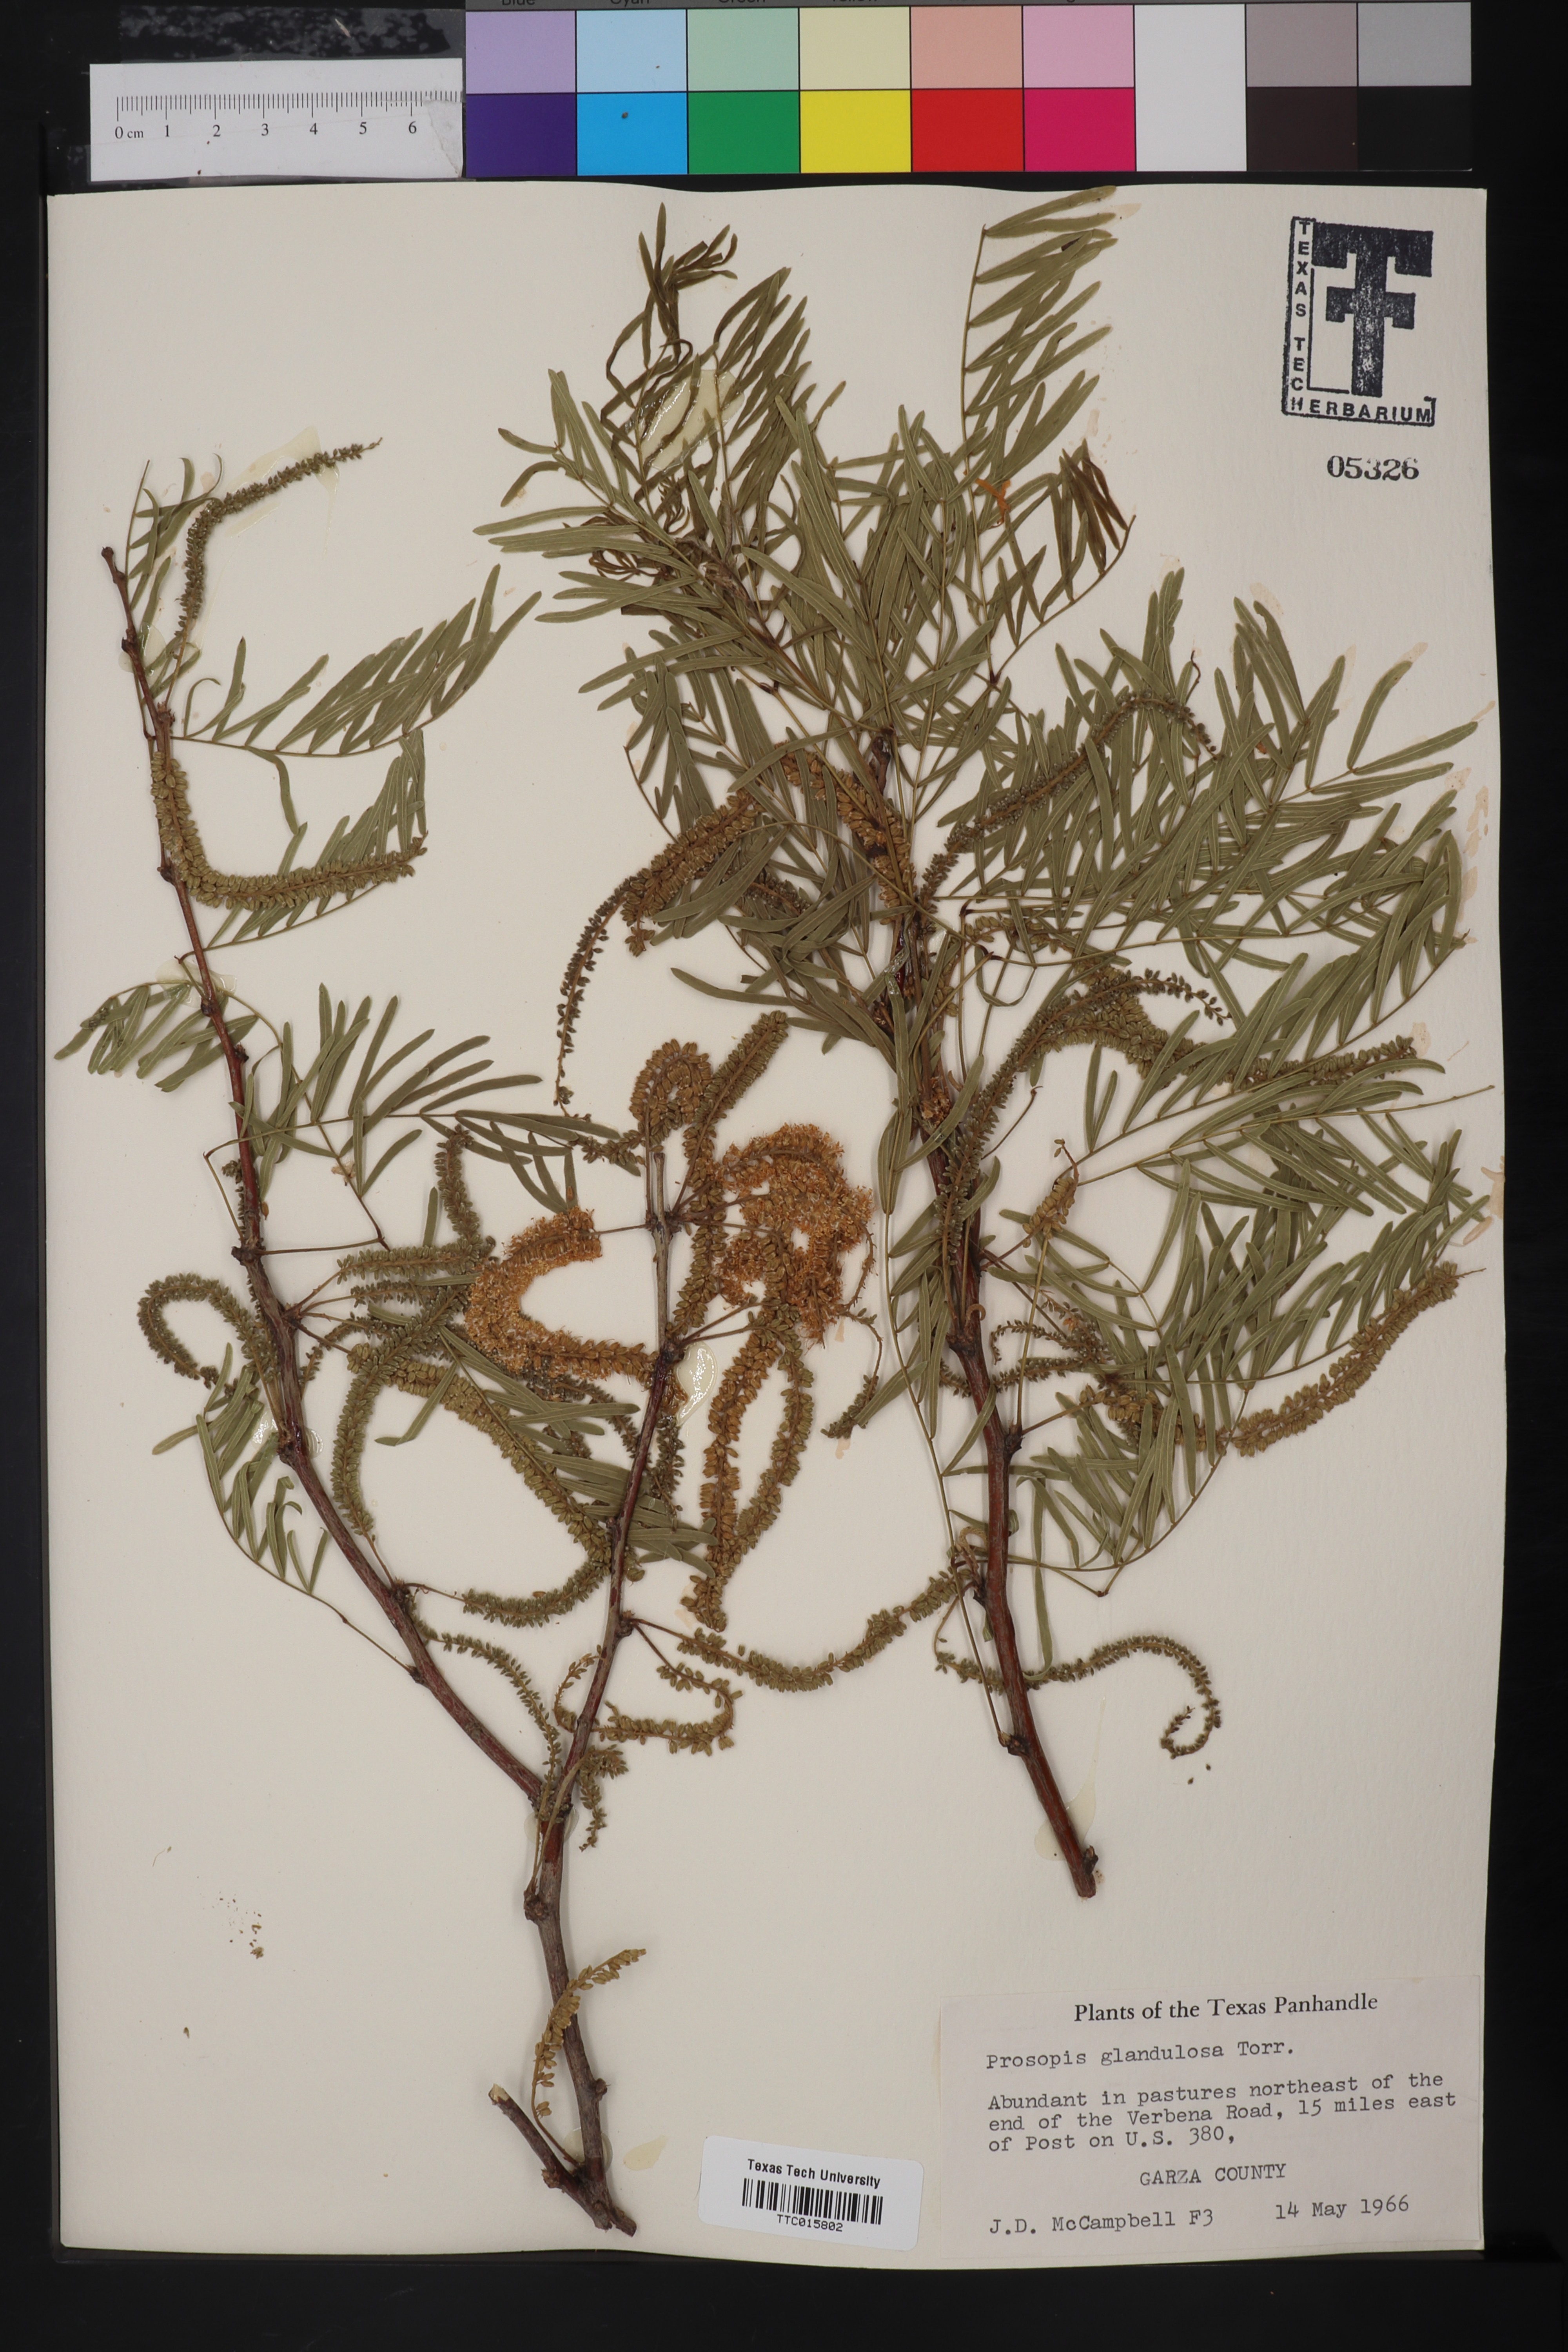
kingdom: Plantae
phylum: Tracheophyta
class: Magnoliopsida
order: Fabales
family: Fabaceae
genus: Prosopis
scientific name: Prosopis glandulosa
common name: Honey mesquite
